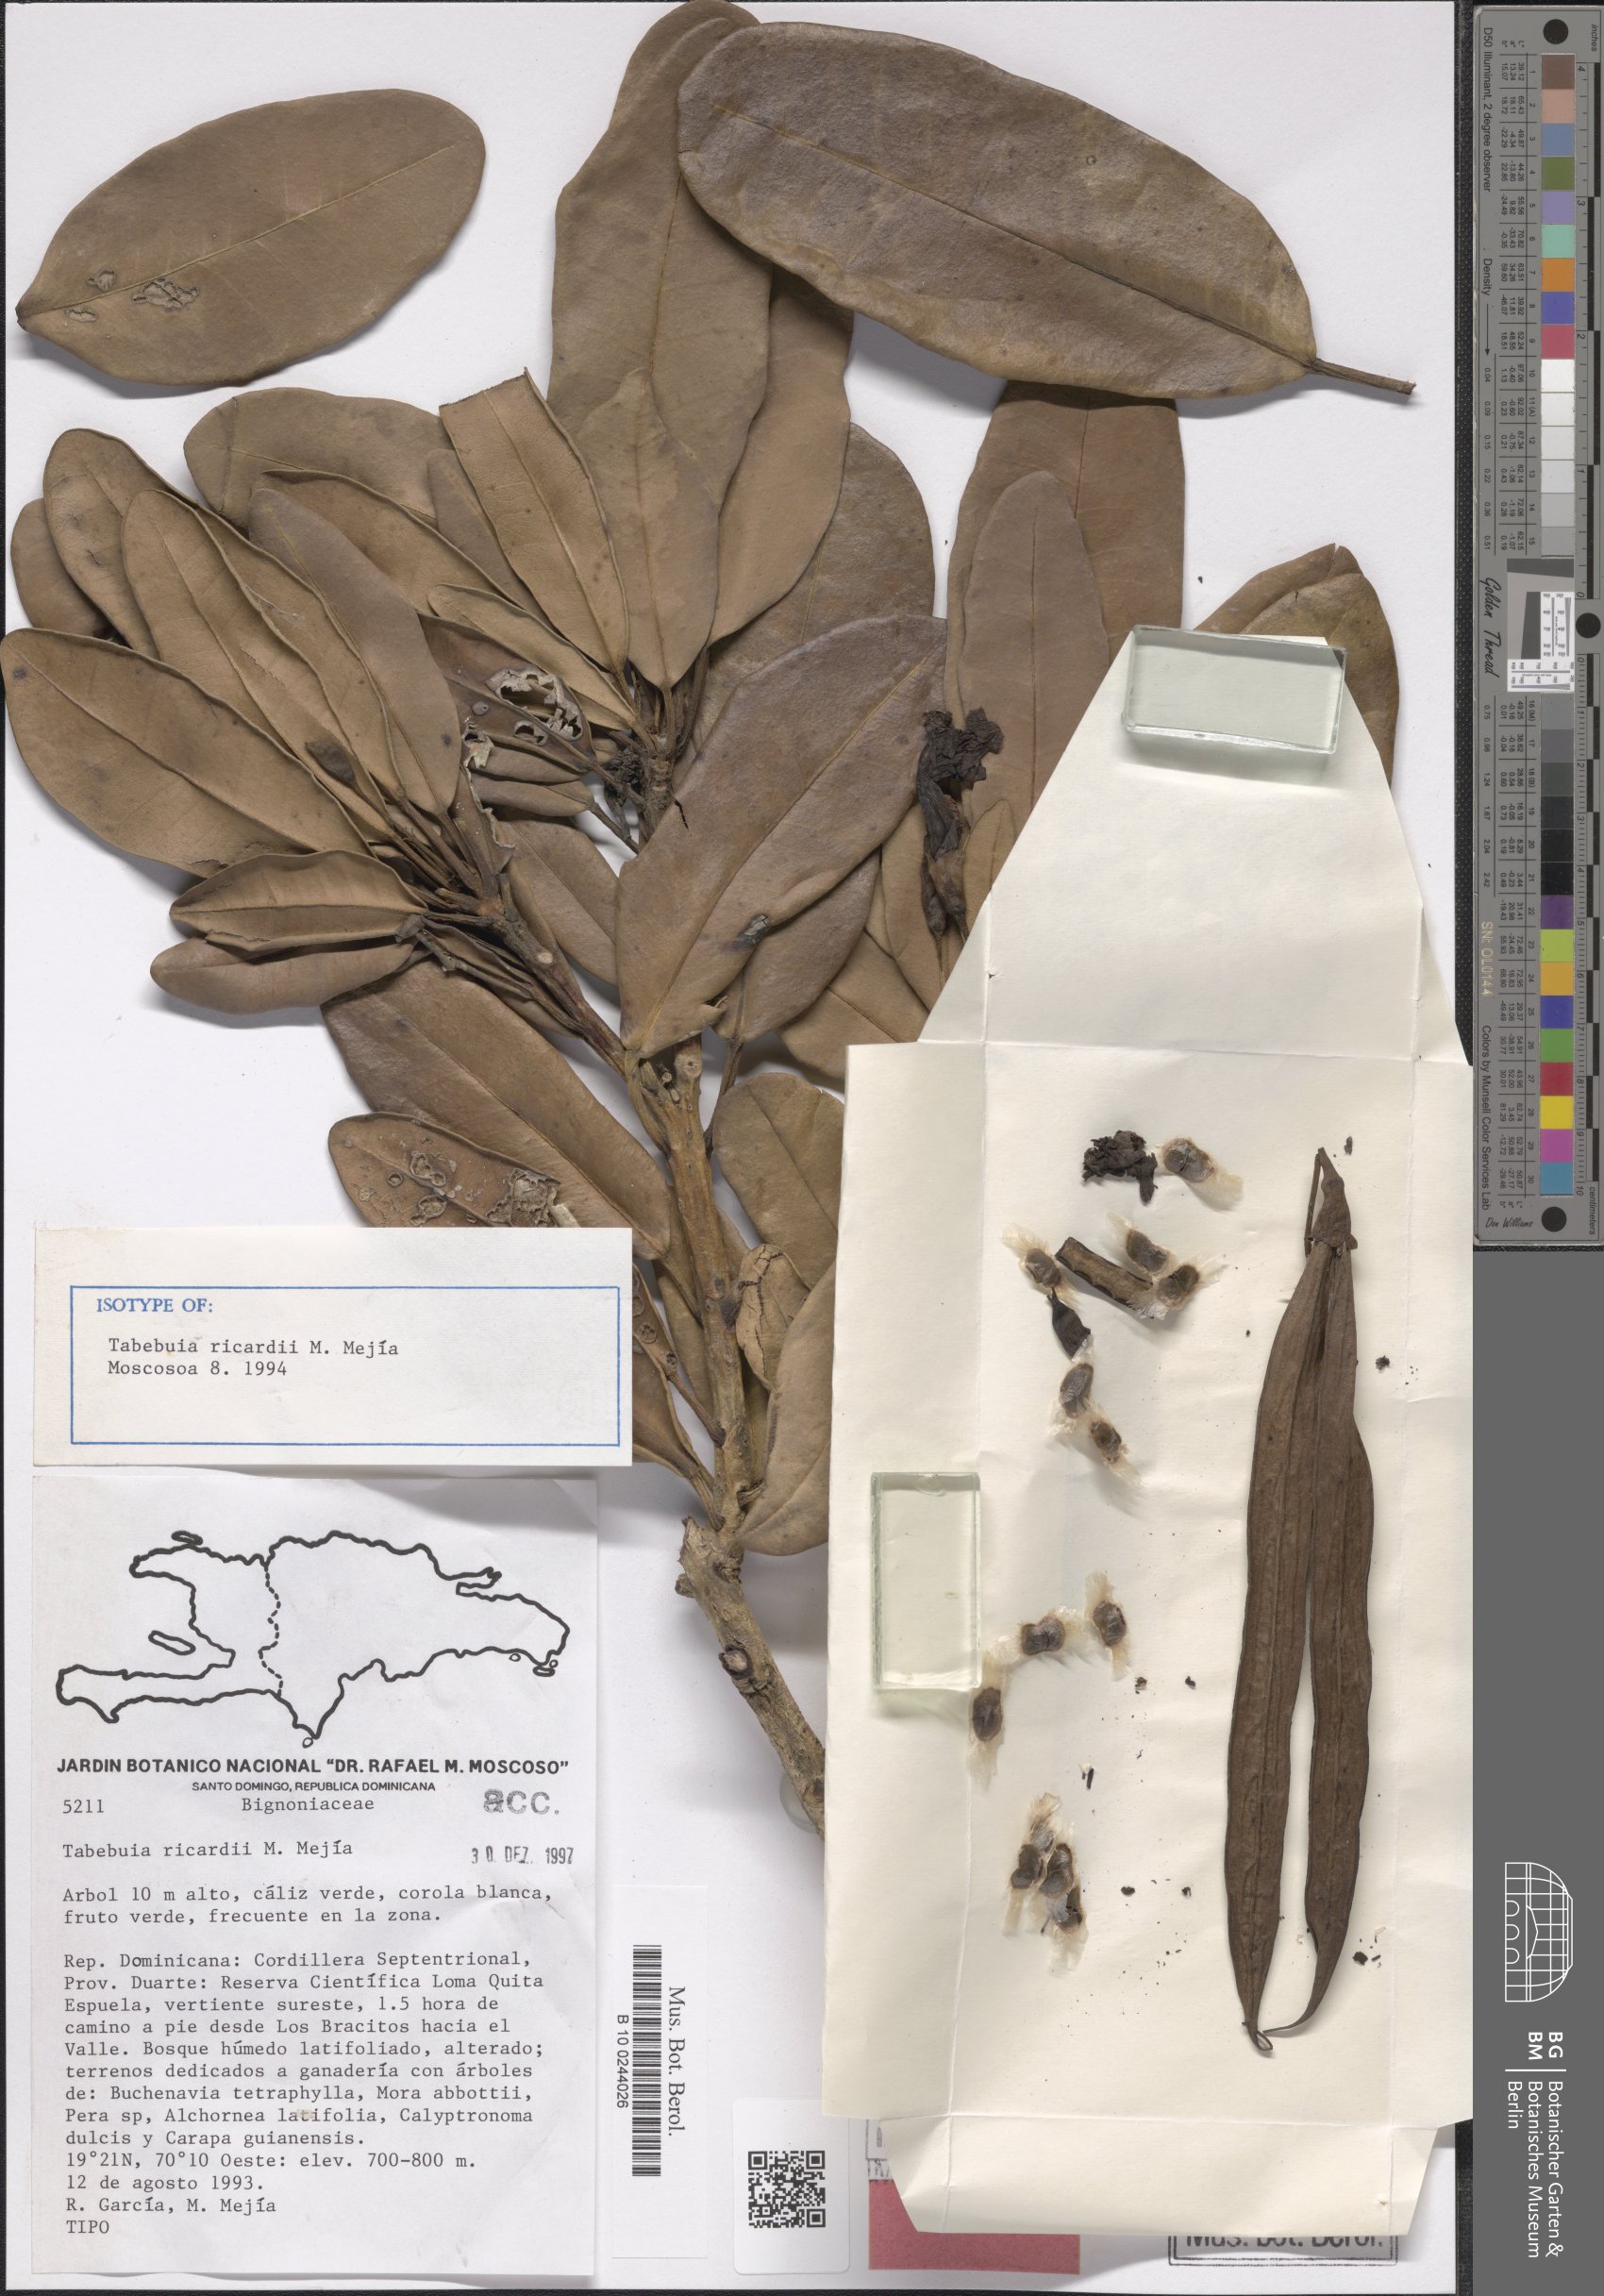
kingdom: Plantae
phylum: Tracheophyta
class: Magnoliopsida
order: Lamiales
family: Bignoniaceae
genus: Tabebuia
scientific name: Tabebuia ricardii
